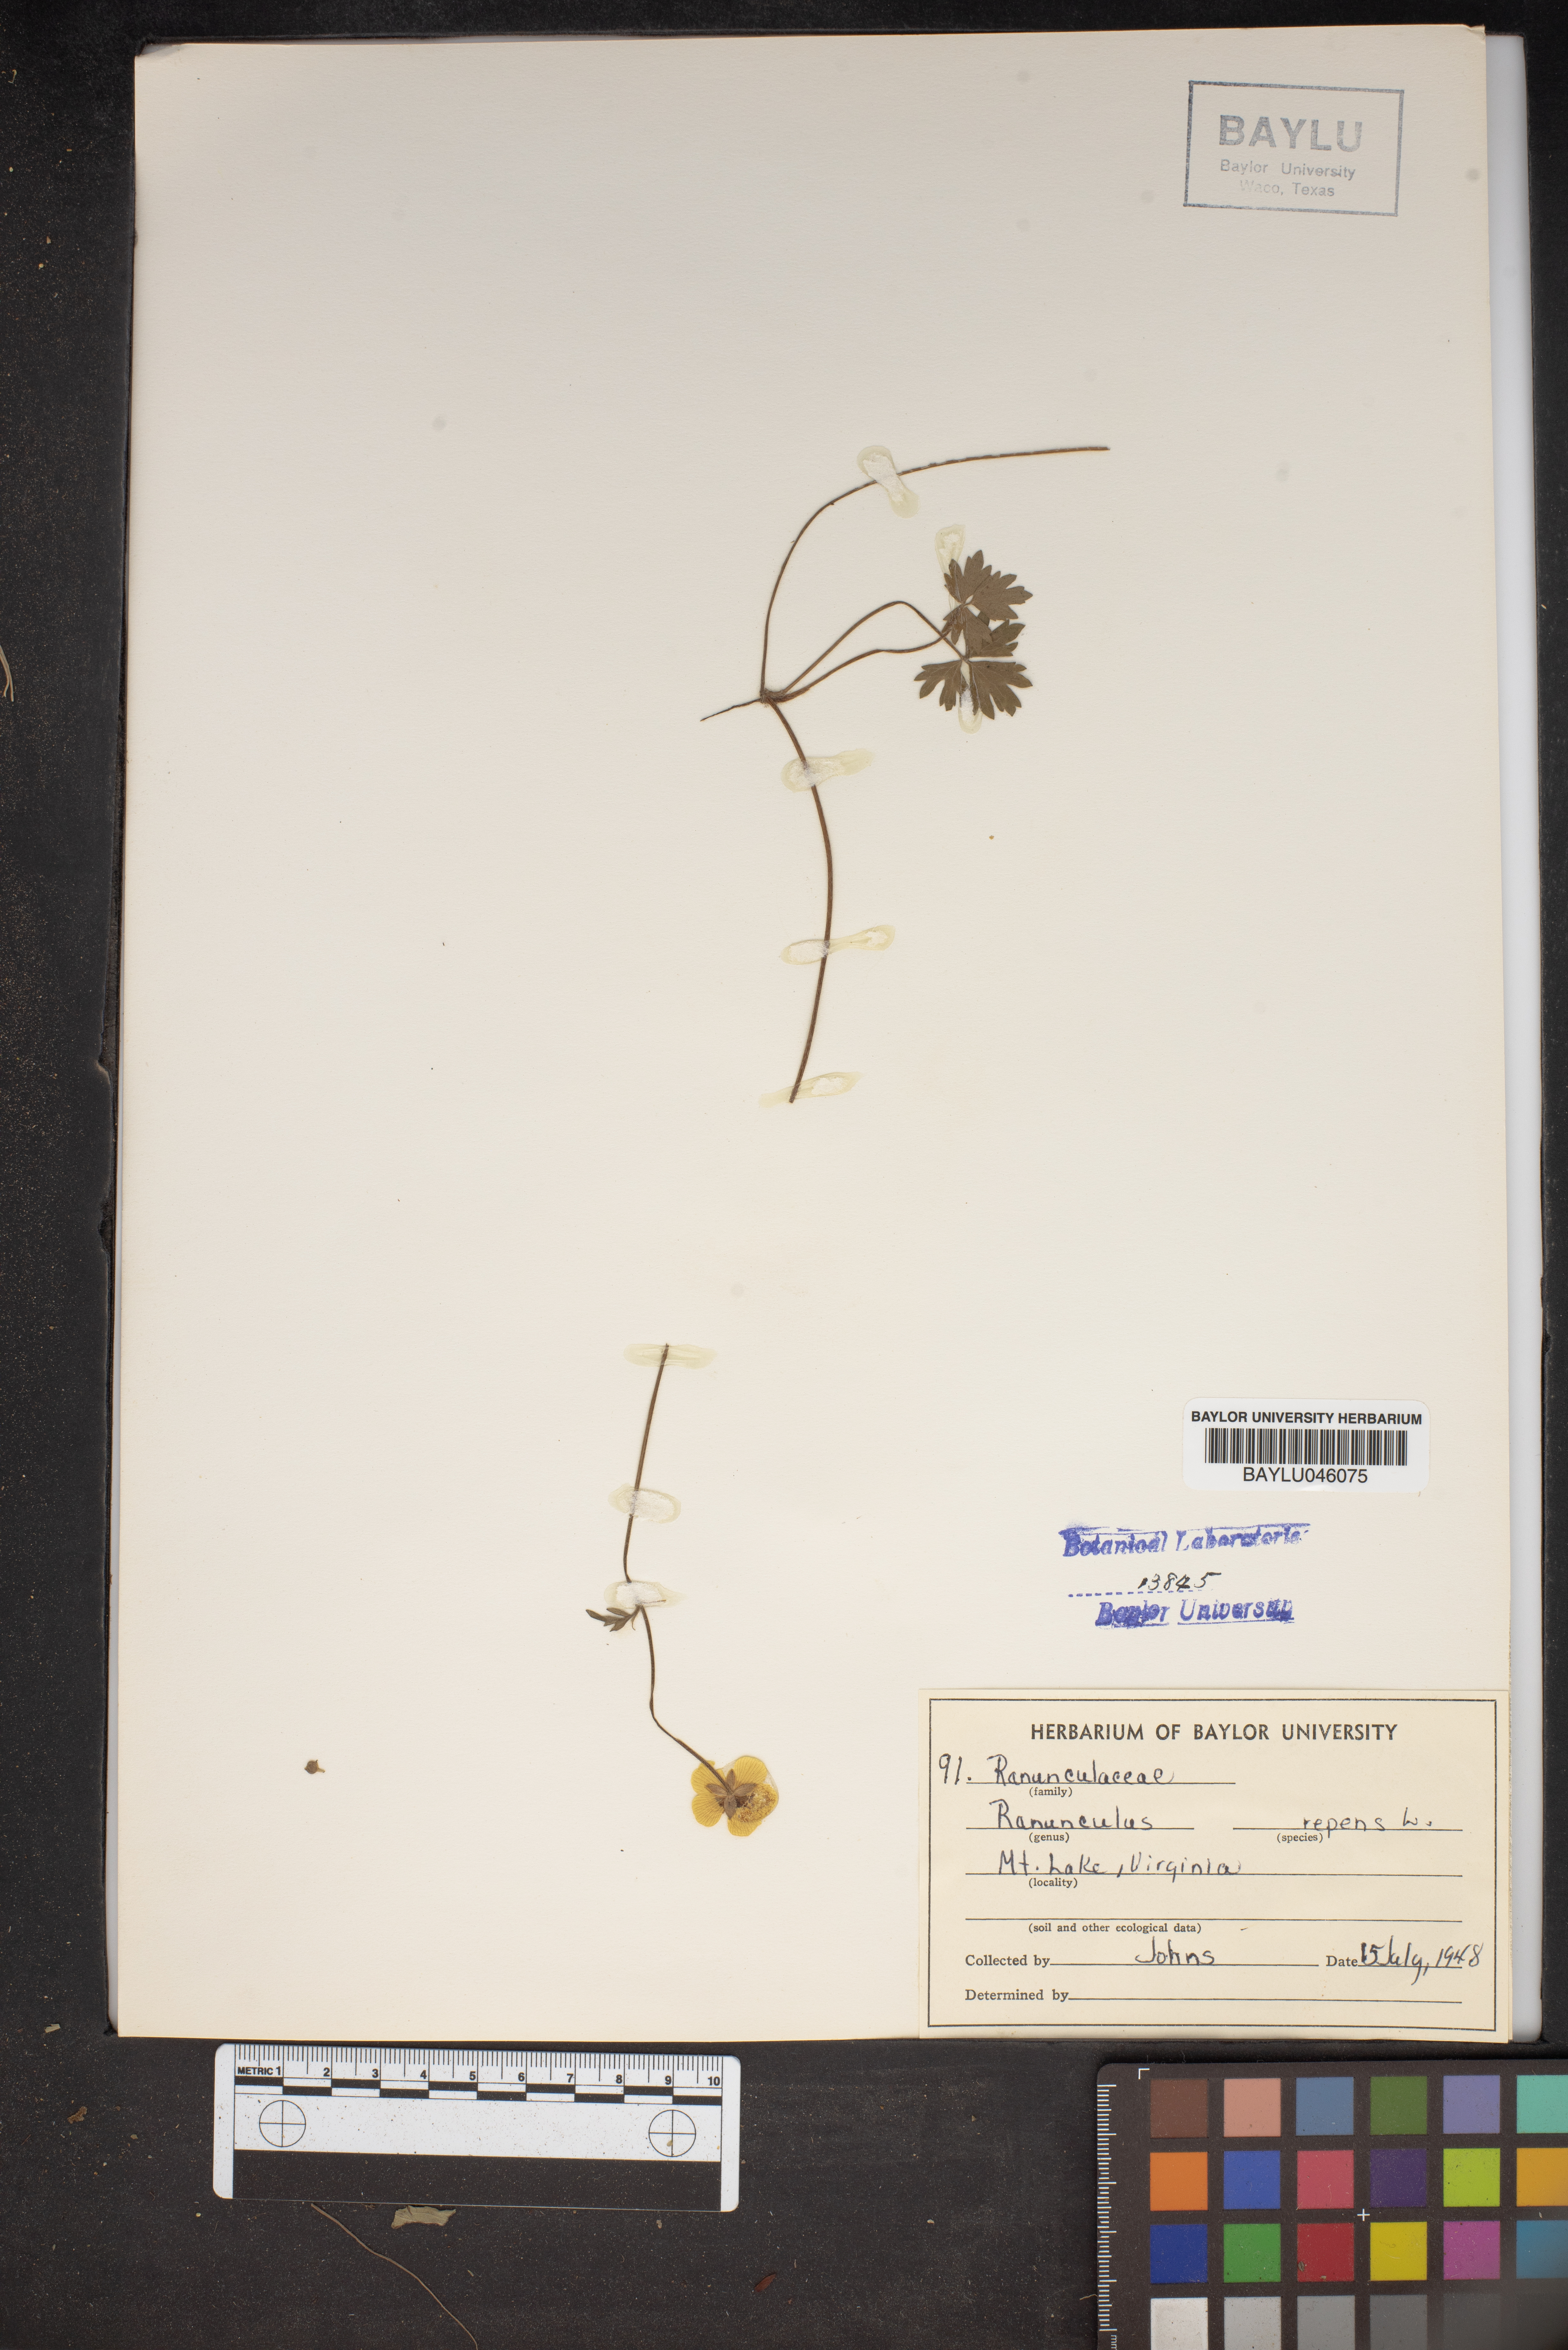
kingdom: Plantae
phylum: Tracheophyta
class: Magnoliopsida
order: Ranunculales
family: Ranunculaceae
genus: Ranunculus
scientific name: Ranunculus repens
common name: Creeping buttercup
